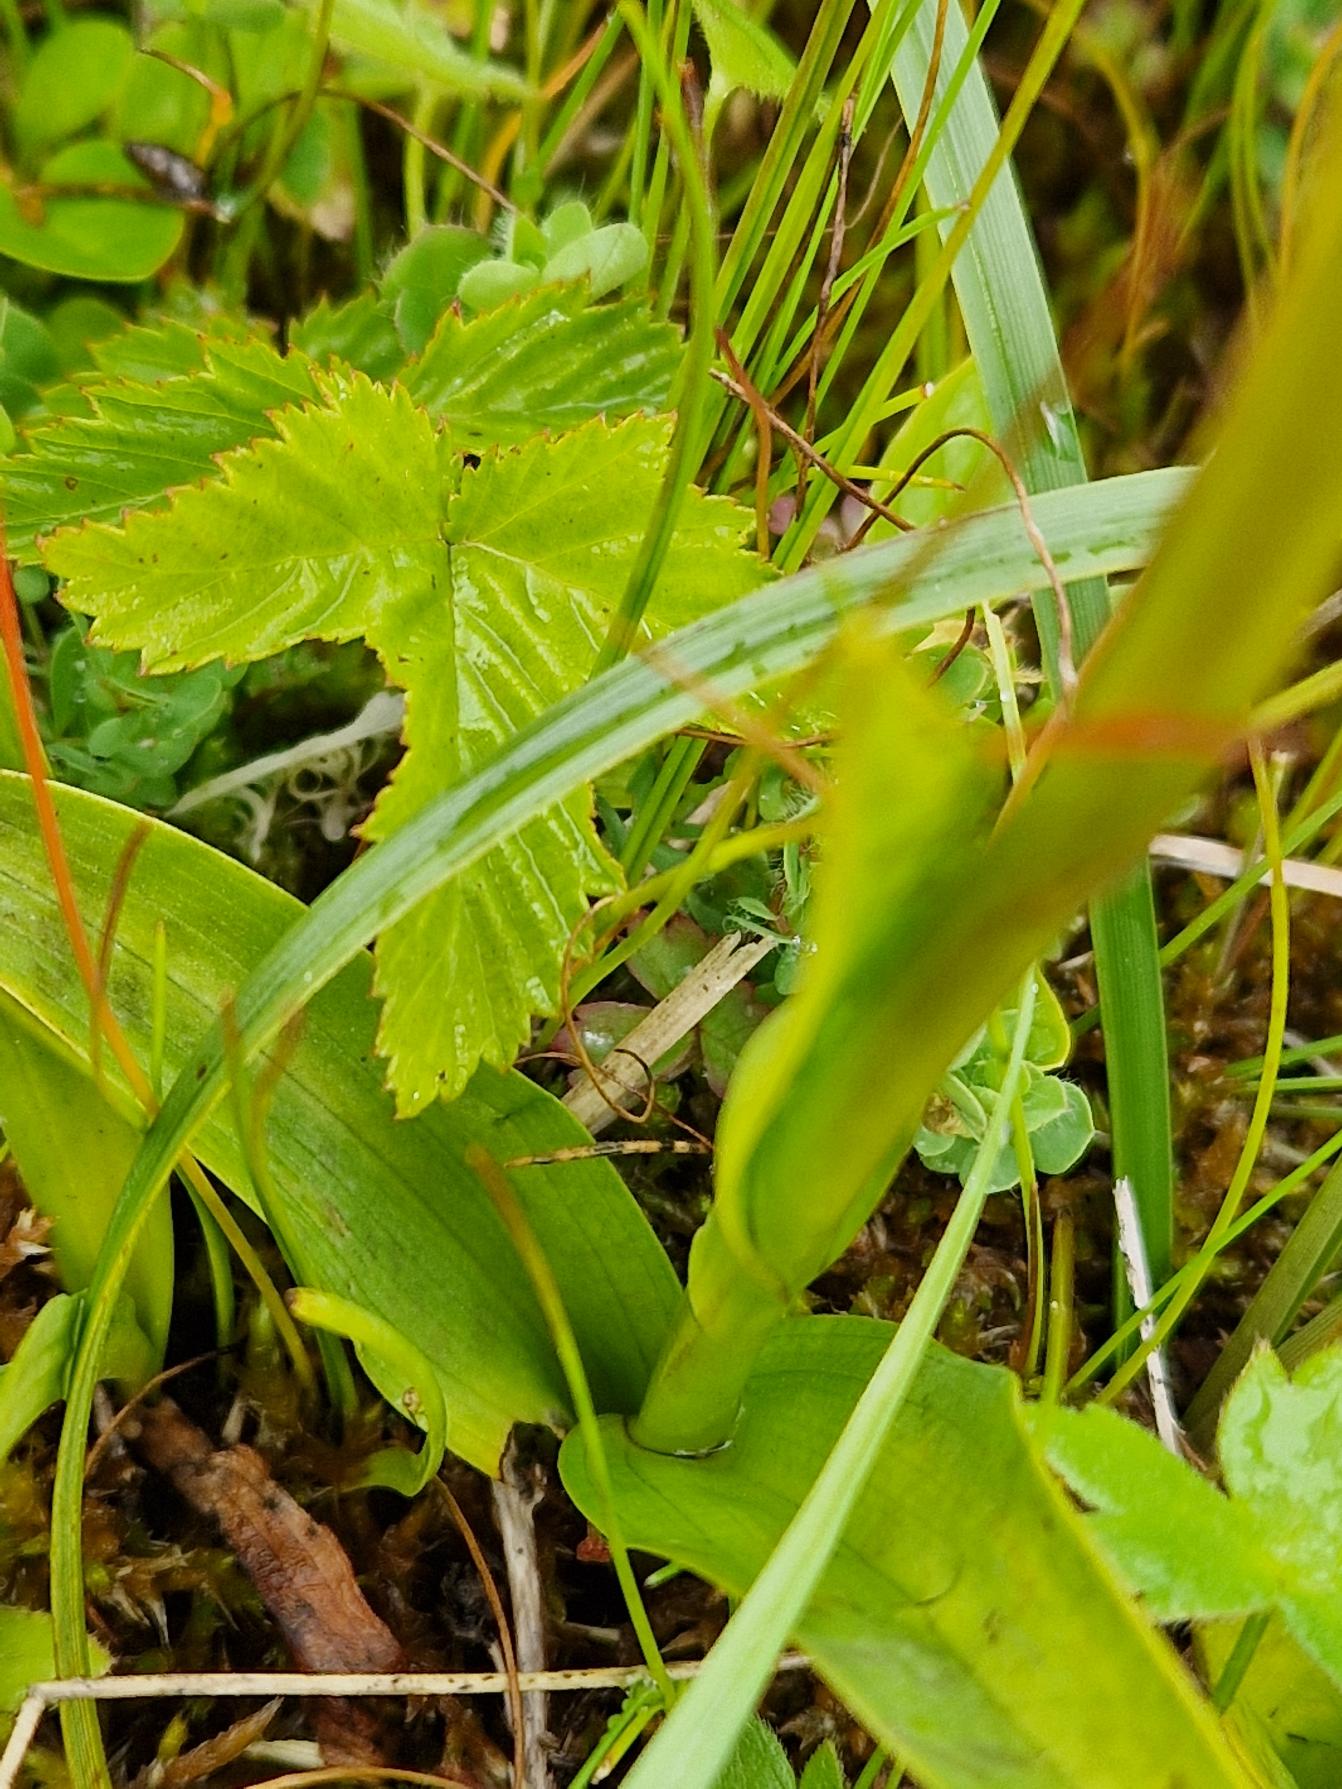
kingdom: Plantae
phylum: Tracheophyta
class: Liliopsida
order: Asparagales
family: Orchidaceae
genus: Dactylorhiza
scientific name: Dactylorhiza incarnata
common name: Kødfarvet gøgeurt
